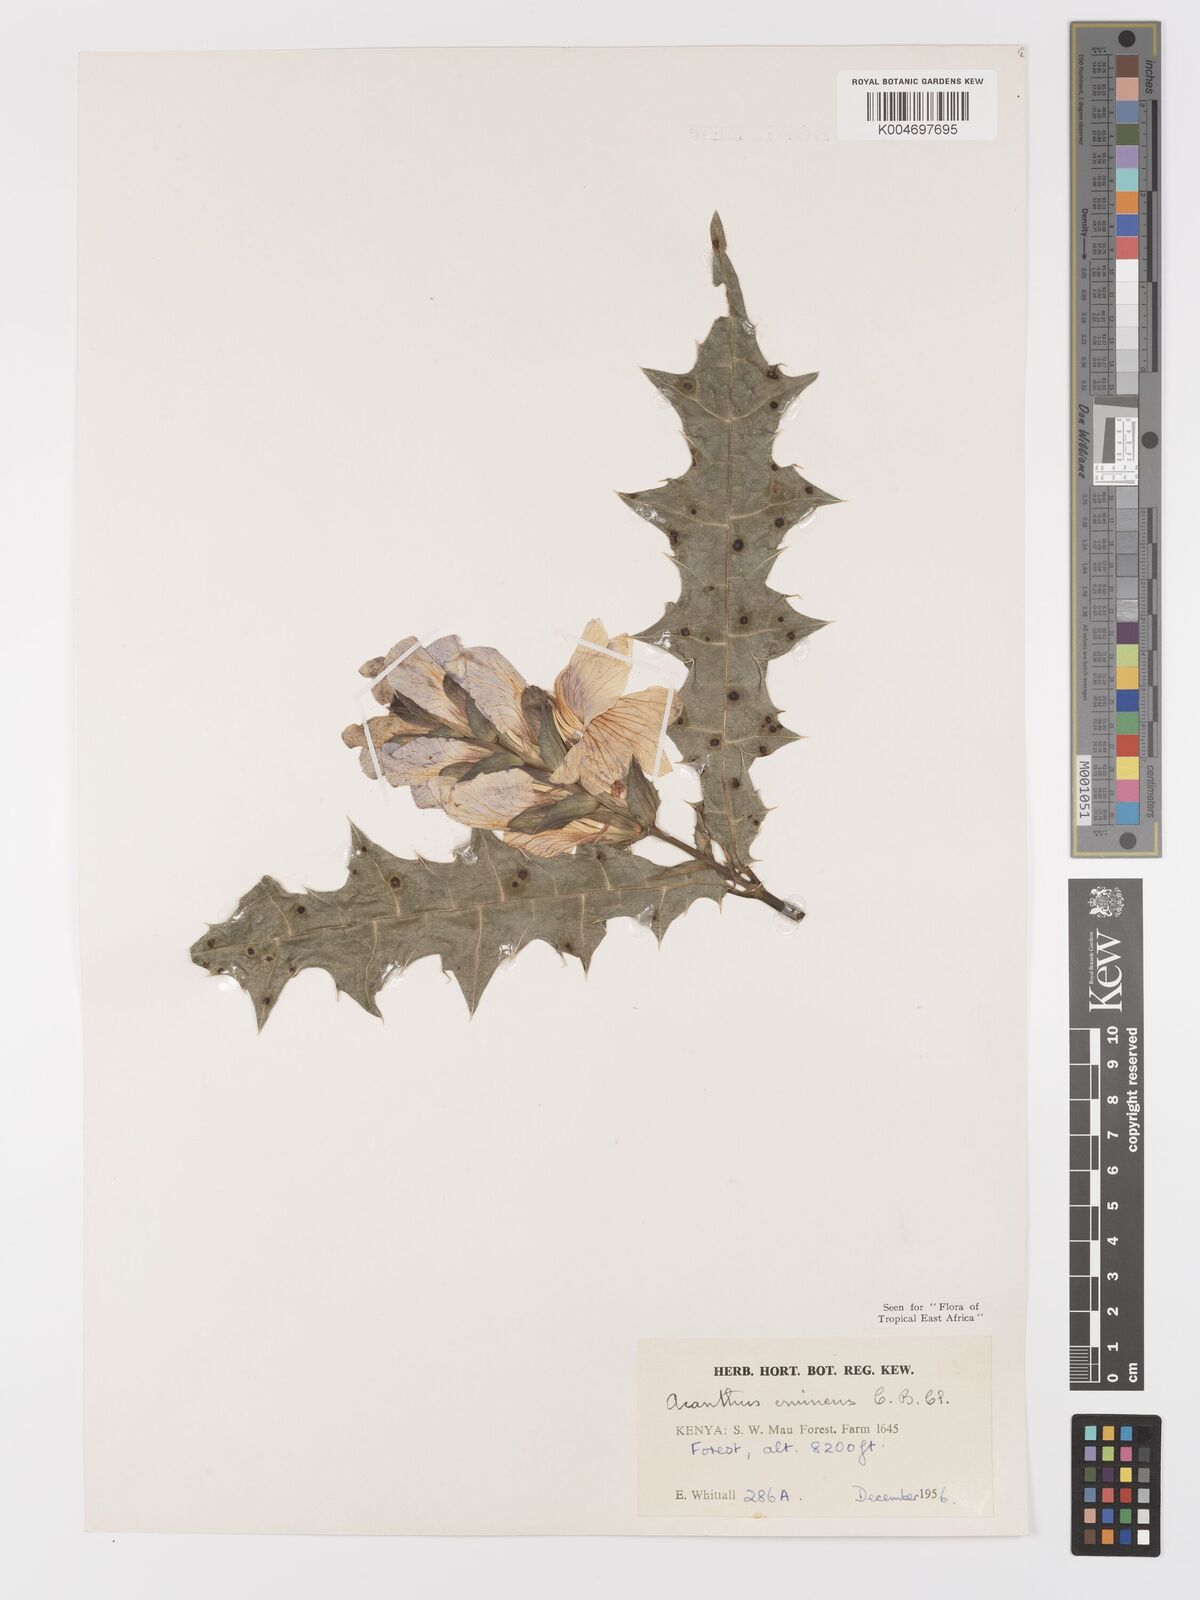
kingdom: Plantae
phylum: Tracheophyta
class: Magnoliopsida
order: Lamiales
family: Acanthaceae
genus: Acanthus
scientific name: Acanthus eminens
